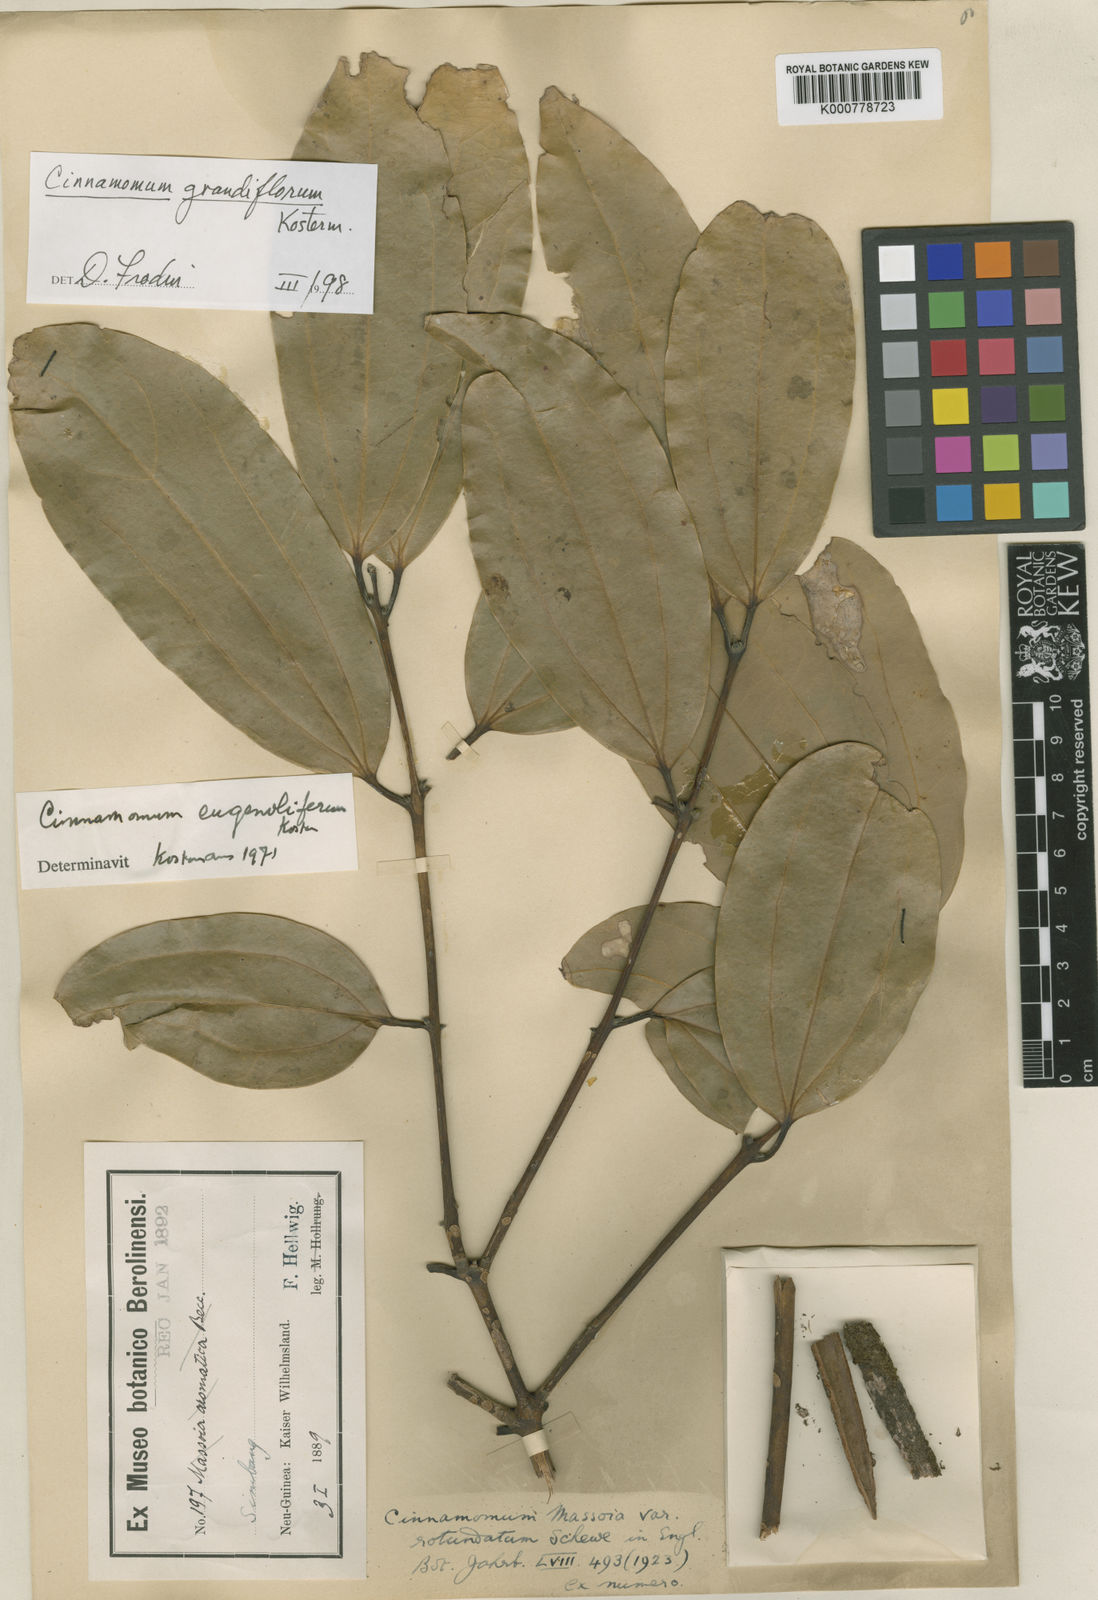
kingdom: Plantae
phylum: Tracheophyta
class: Magnoliopsida
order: Laurales
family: Lauraceae
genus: Cinnamomum
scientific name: Cinnamomum grandiflorum
